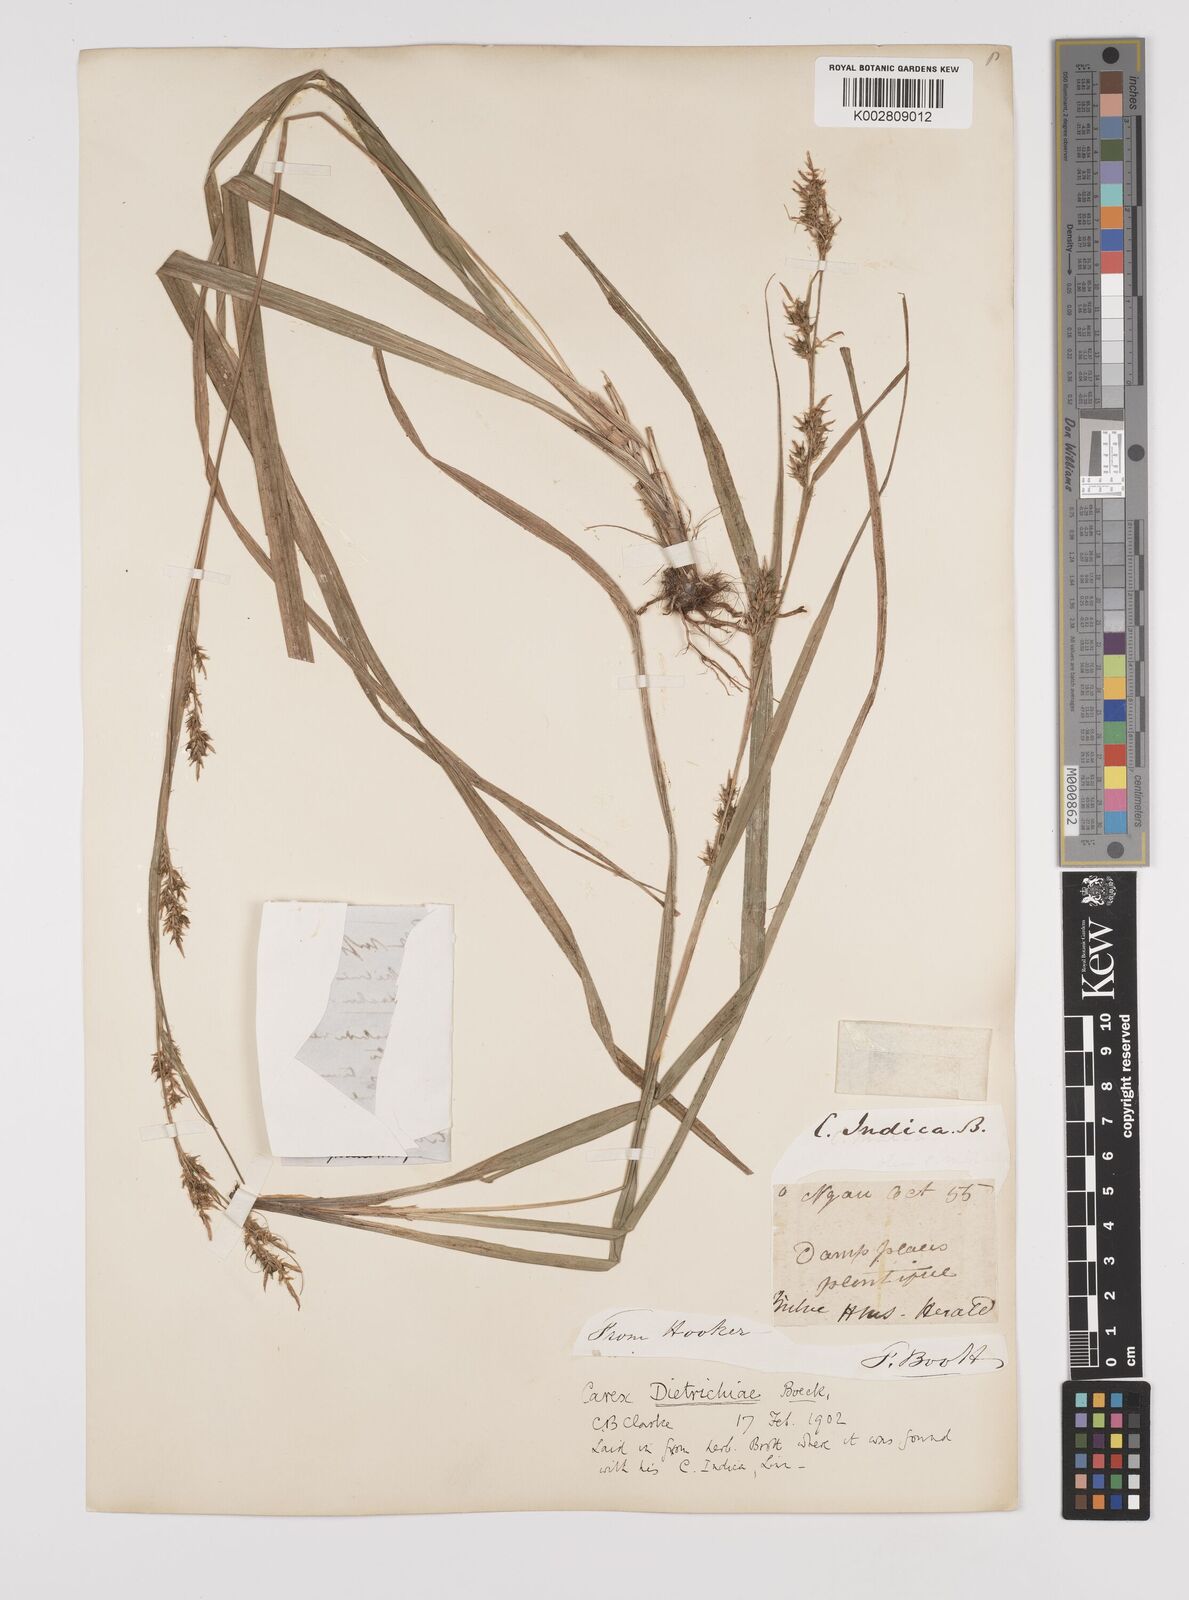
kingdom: Plantae
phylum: Tracheophyta
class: Liliopsida
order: Poales
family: Cyperaceae
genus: Carex
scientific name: Carex indica
